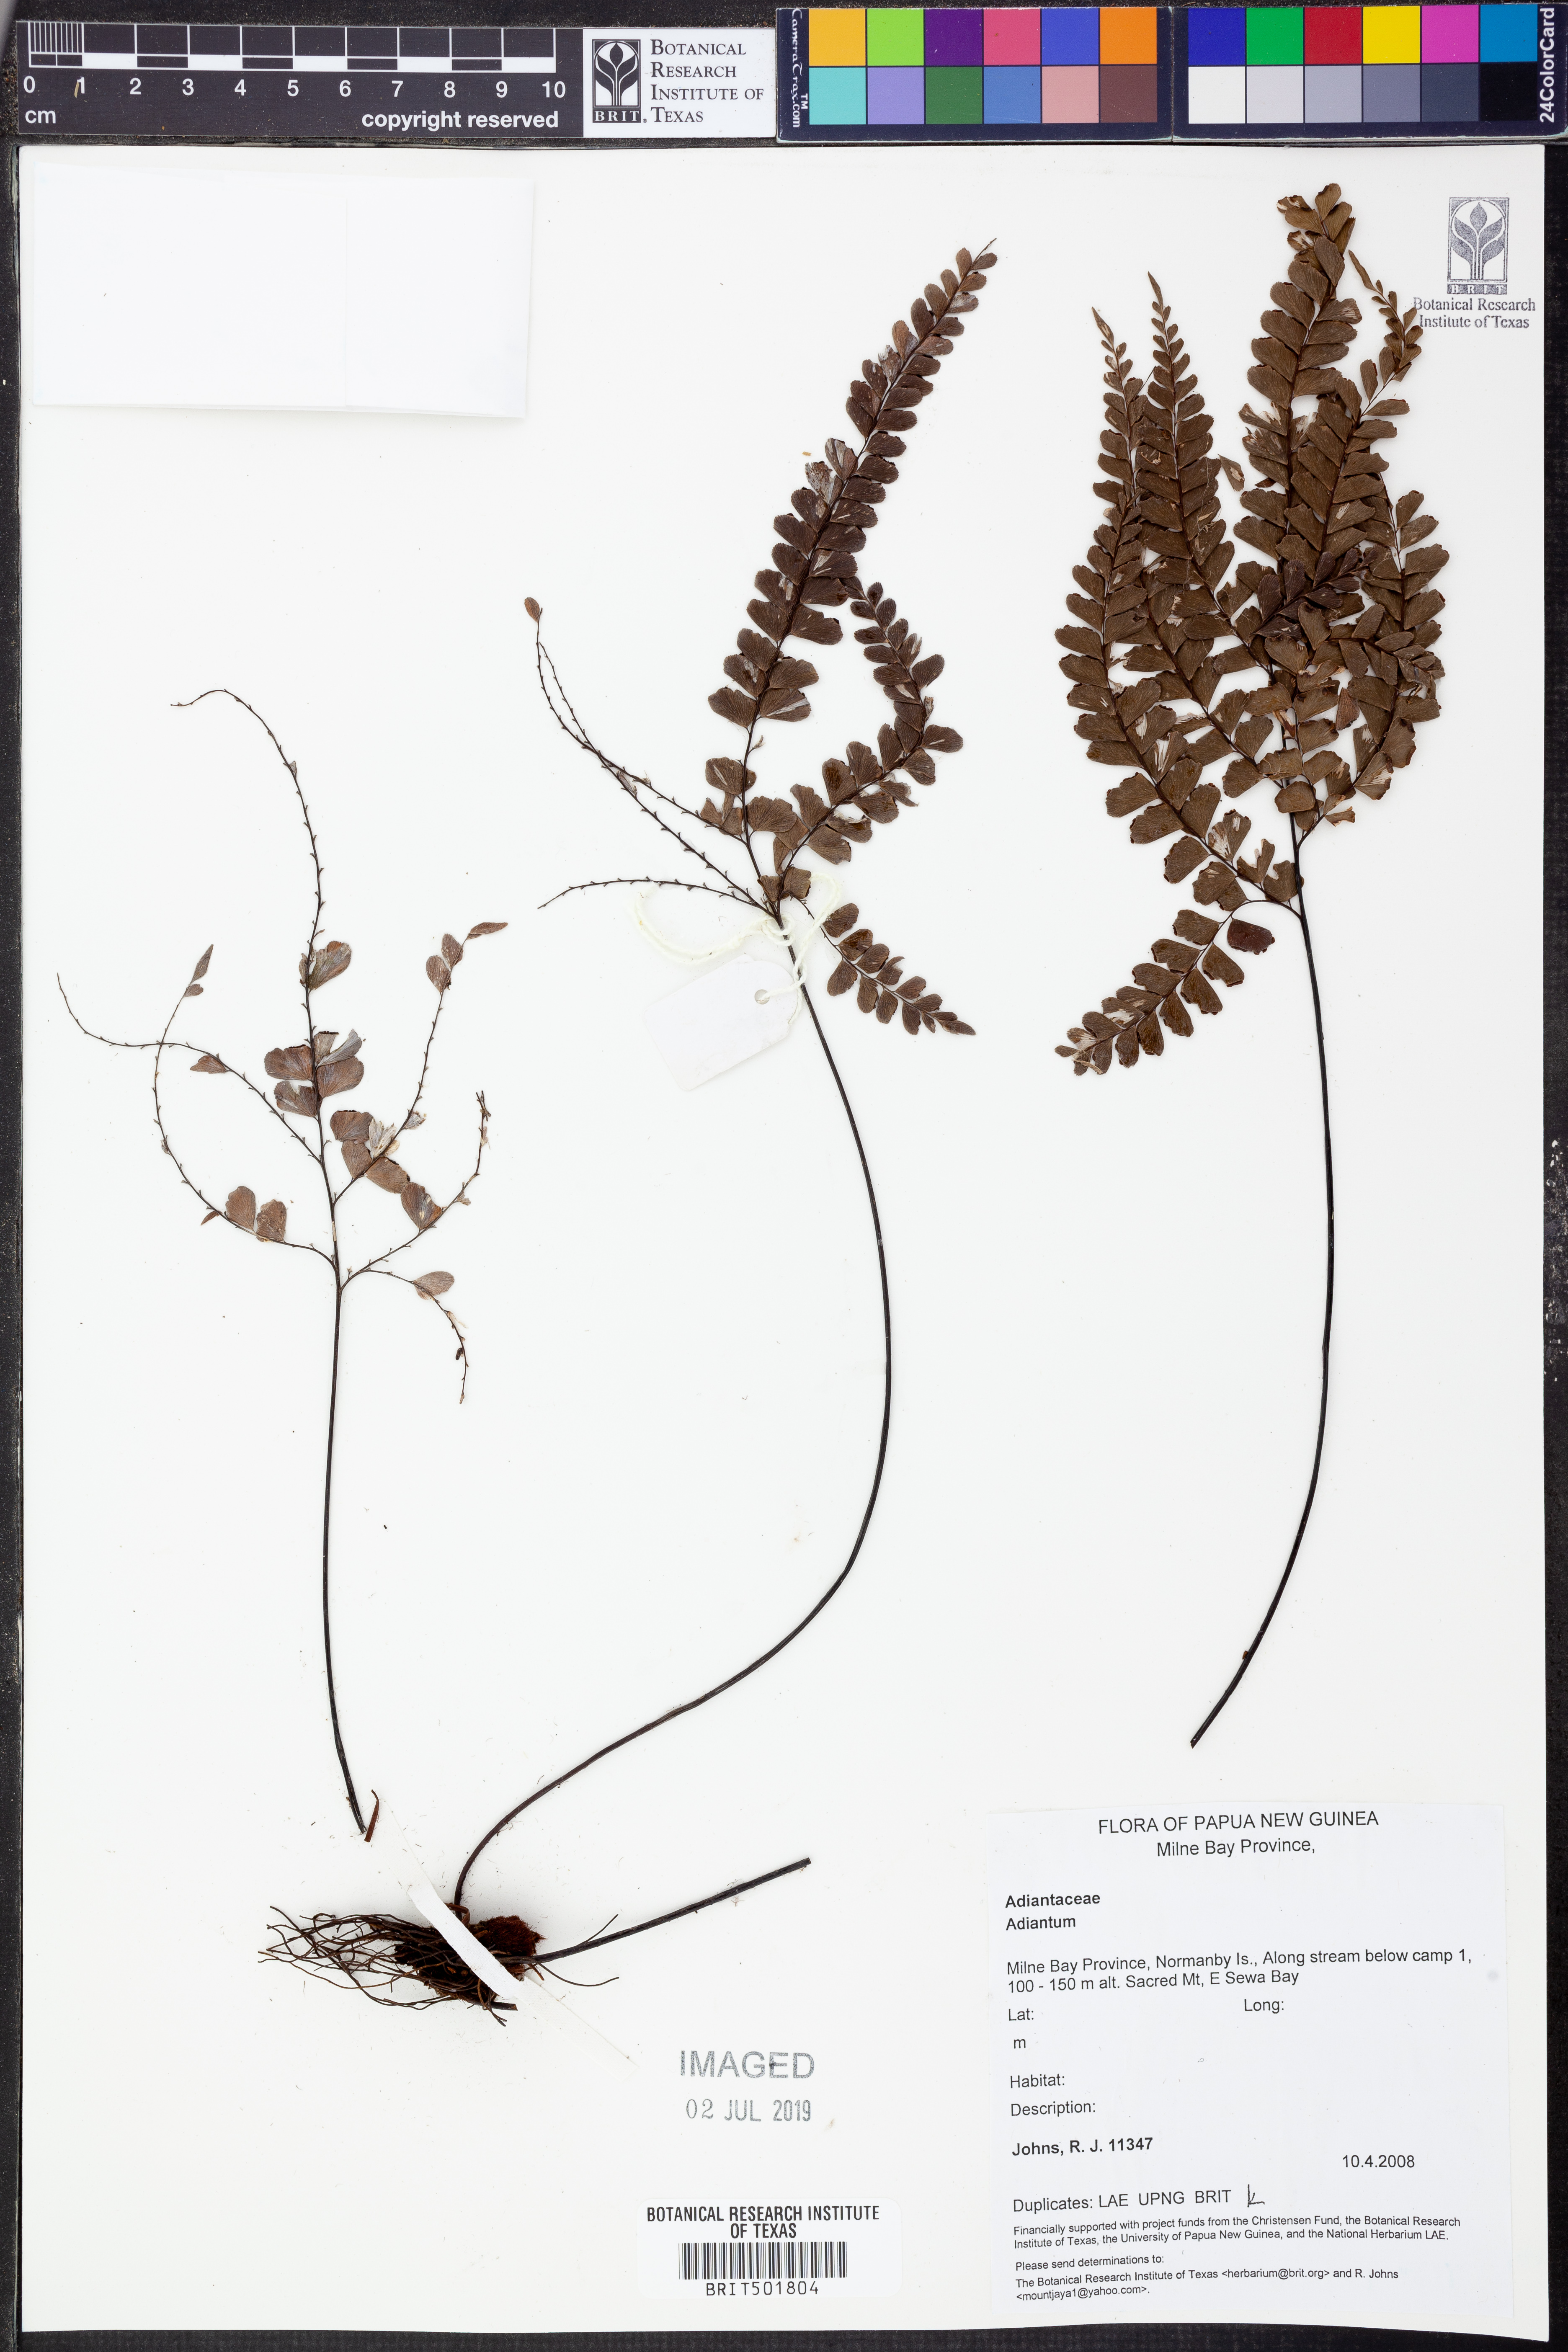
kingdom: Plantae
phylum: Tracheophyta
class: Polypodiopsida
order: Polypodiales
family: Pteridaceae
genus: Adiantum
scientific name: Adiantum
